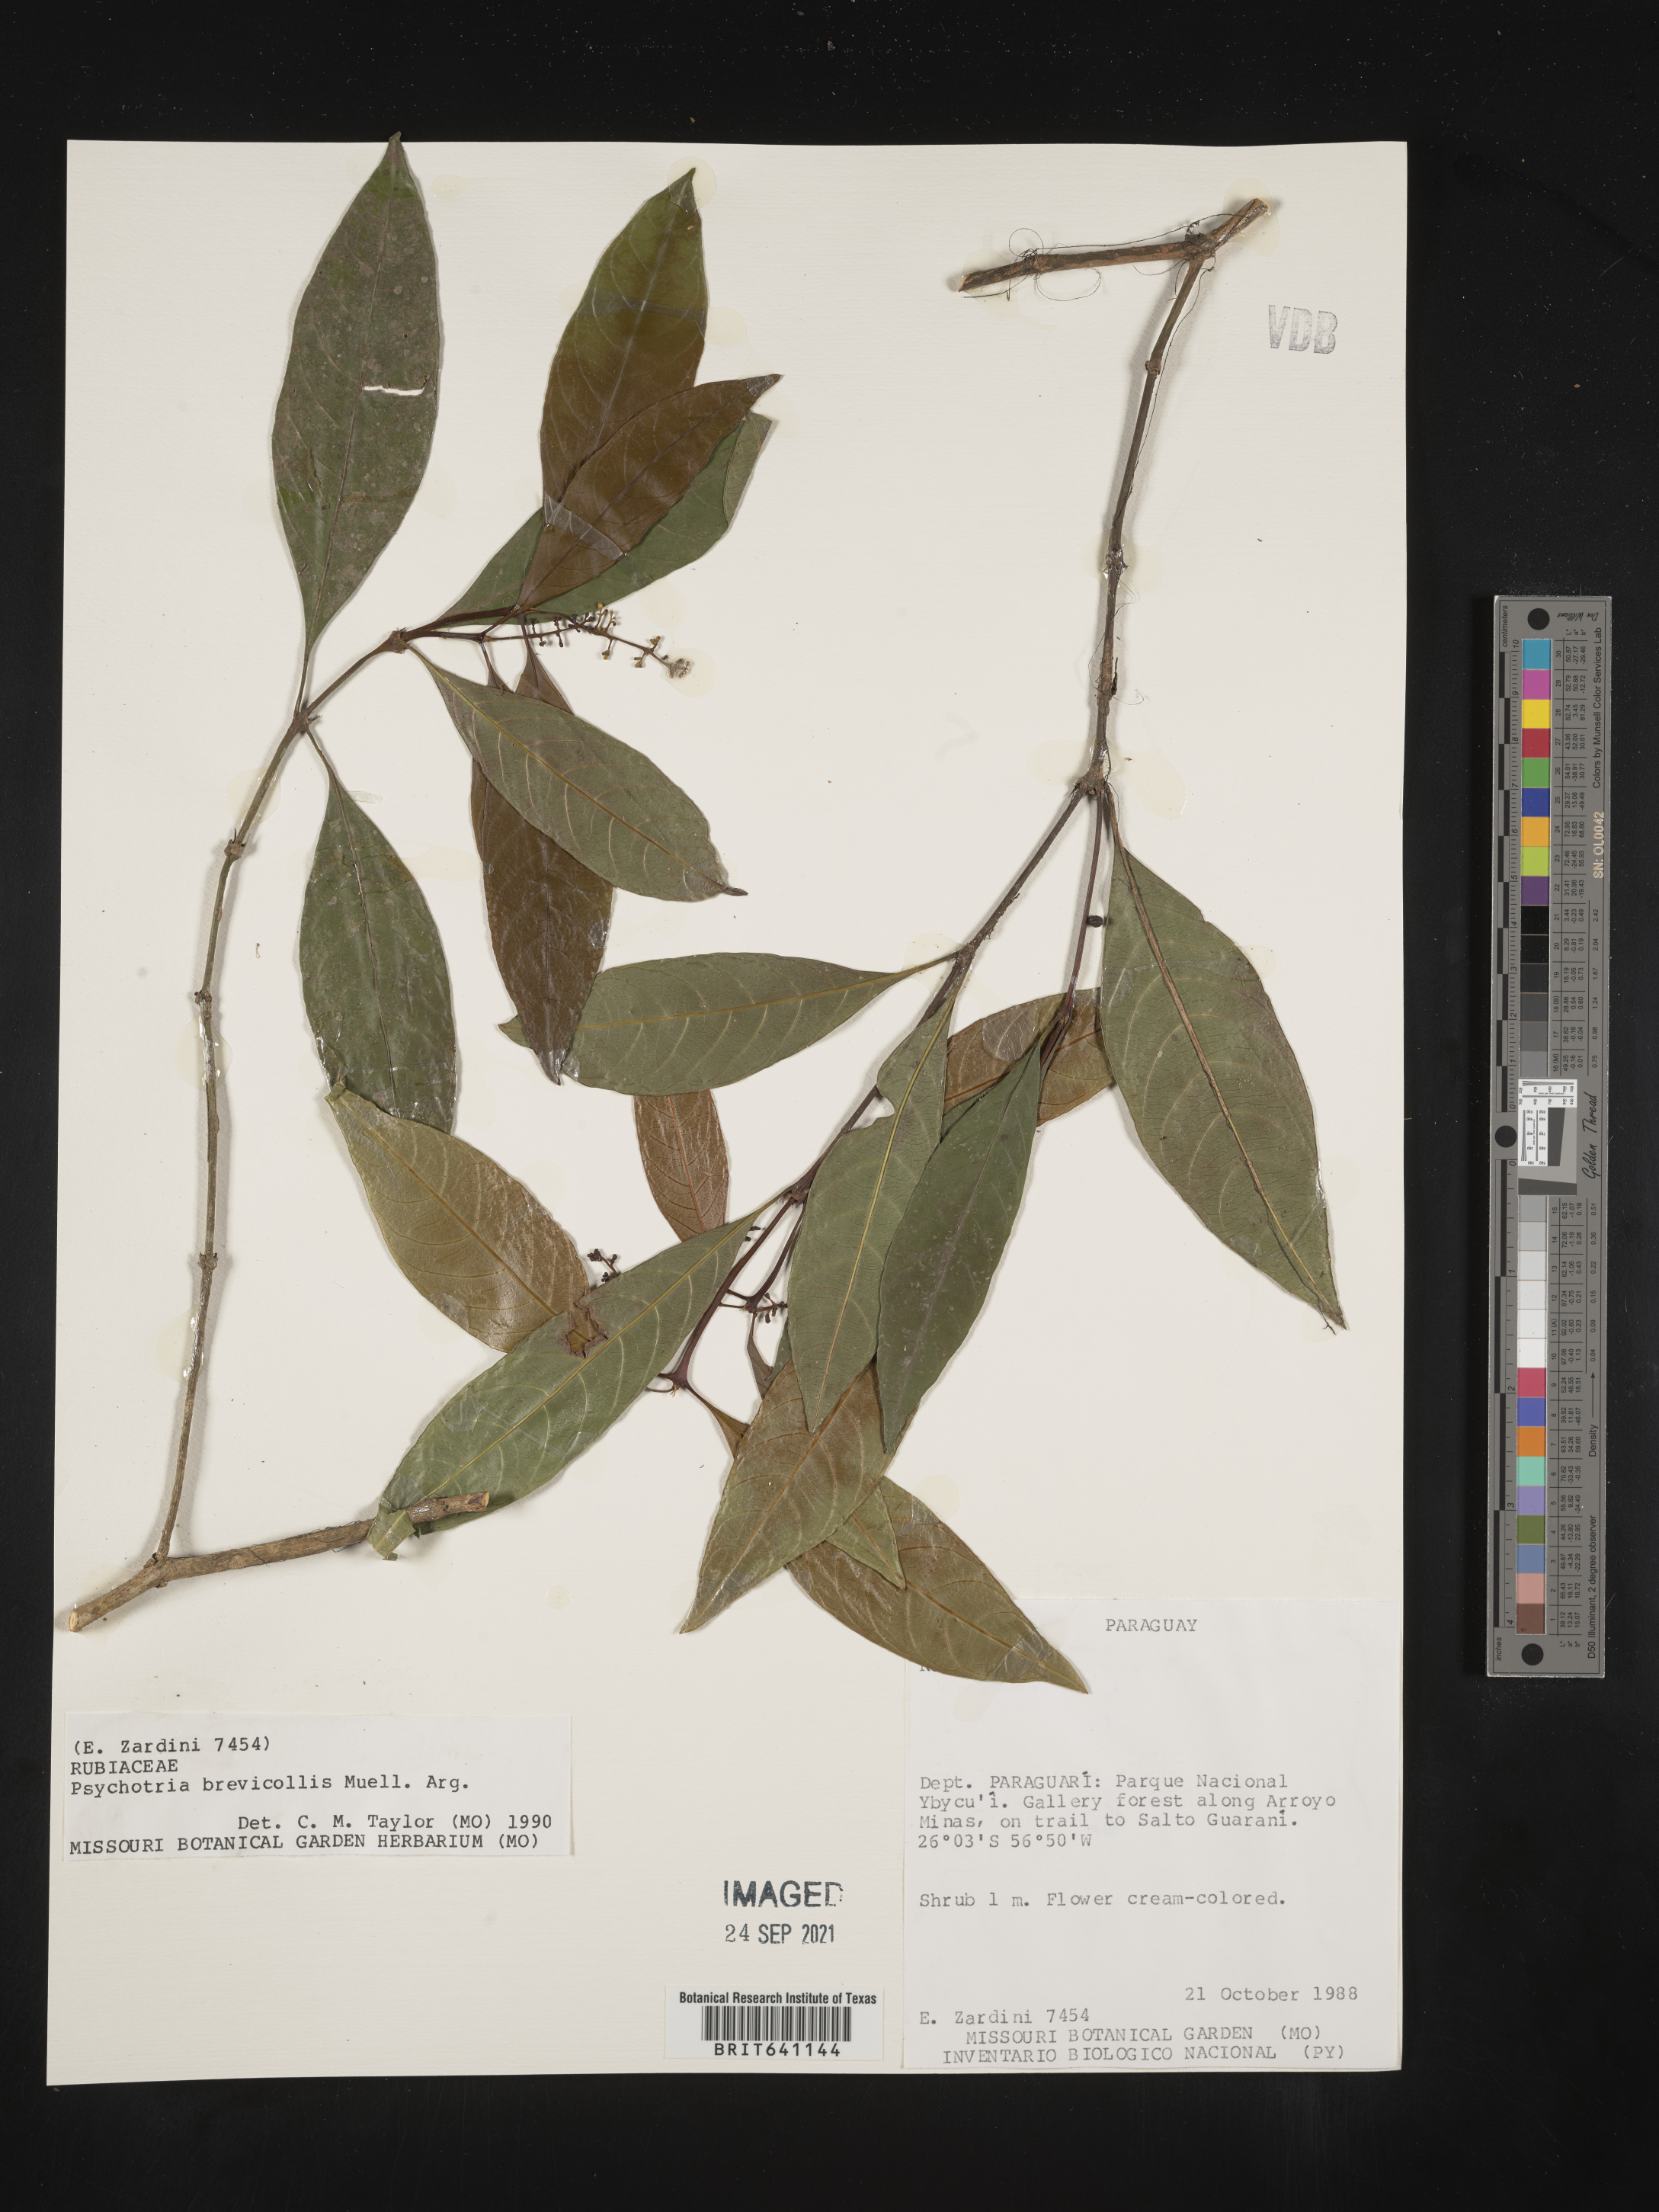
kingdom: Plantae
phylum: Tracheophyta
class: Magnoliopsida
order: Gentianales
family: Rubiaceae
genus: Psychotria
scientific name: Psychotria
